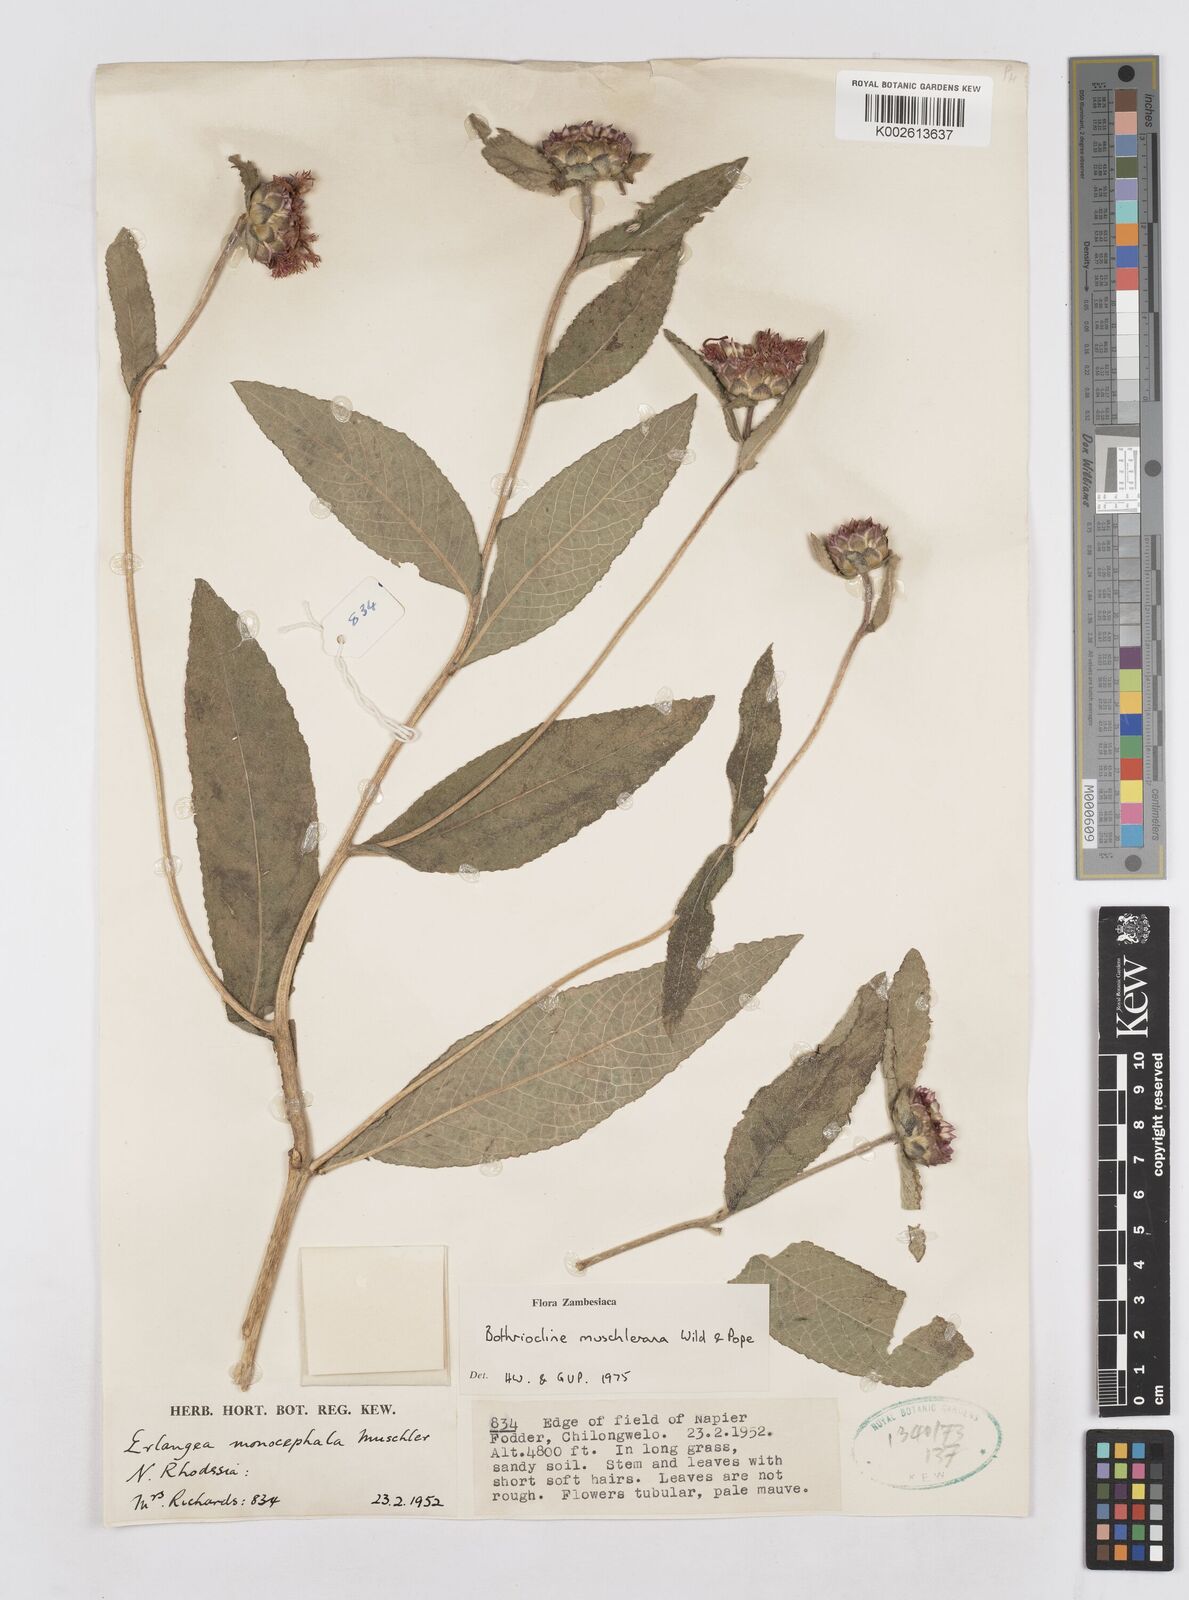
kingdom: Plantae
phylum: Tracheophyta
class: Magnoliopsida
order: Asterales
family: Asteraceae
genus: Bothriocline
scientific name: Bothriocline muschleriana
